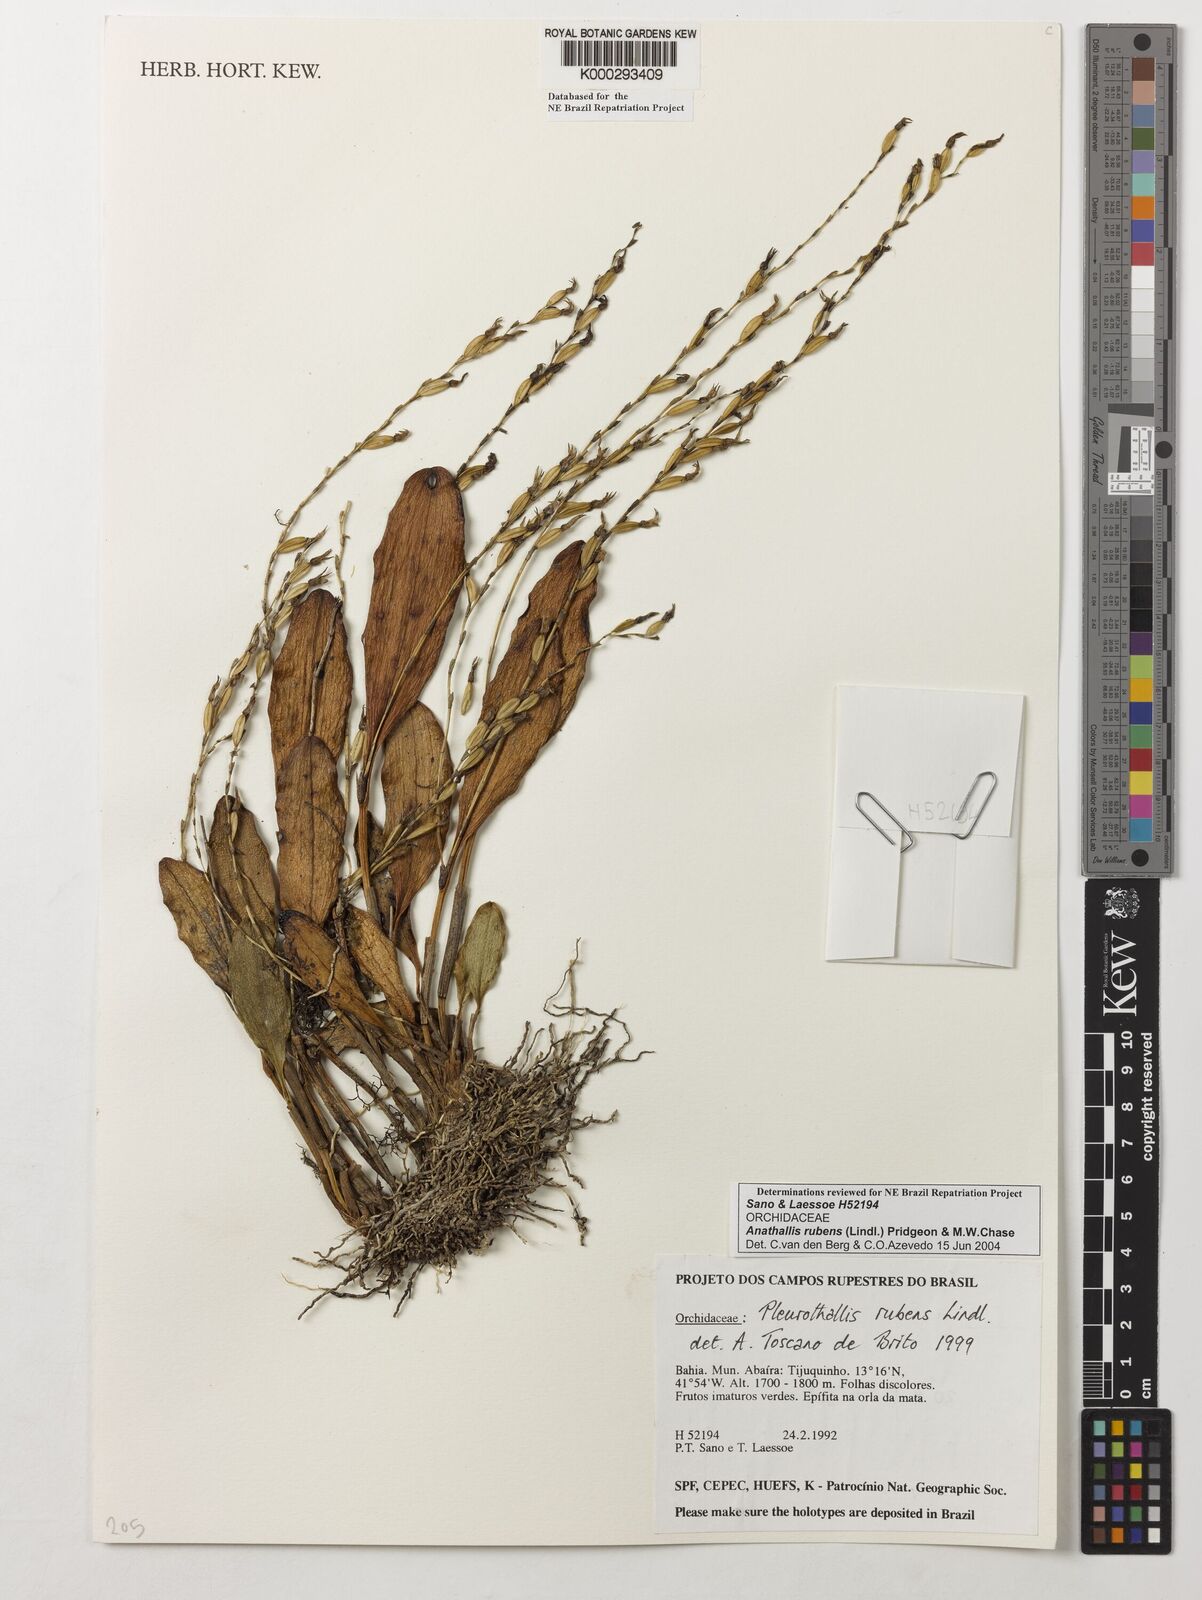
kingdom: Plantae
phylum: Tracheophyta
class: Liliopsida
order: Asparagales
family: Orchidaceae
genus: Stelis
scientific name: Stelis montserratii
